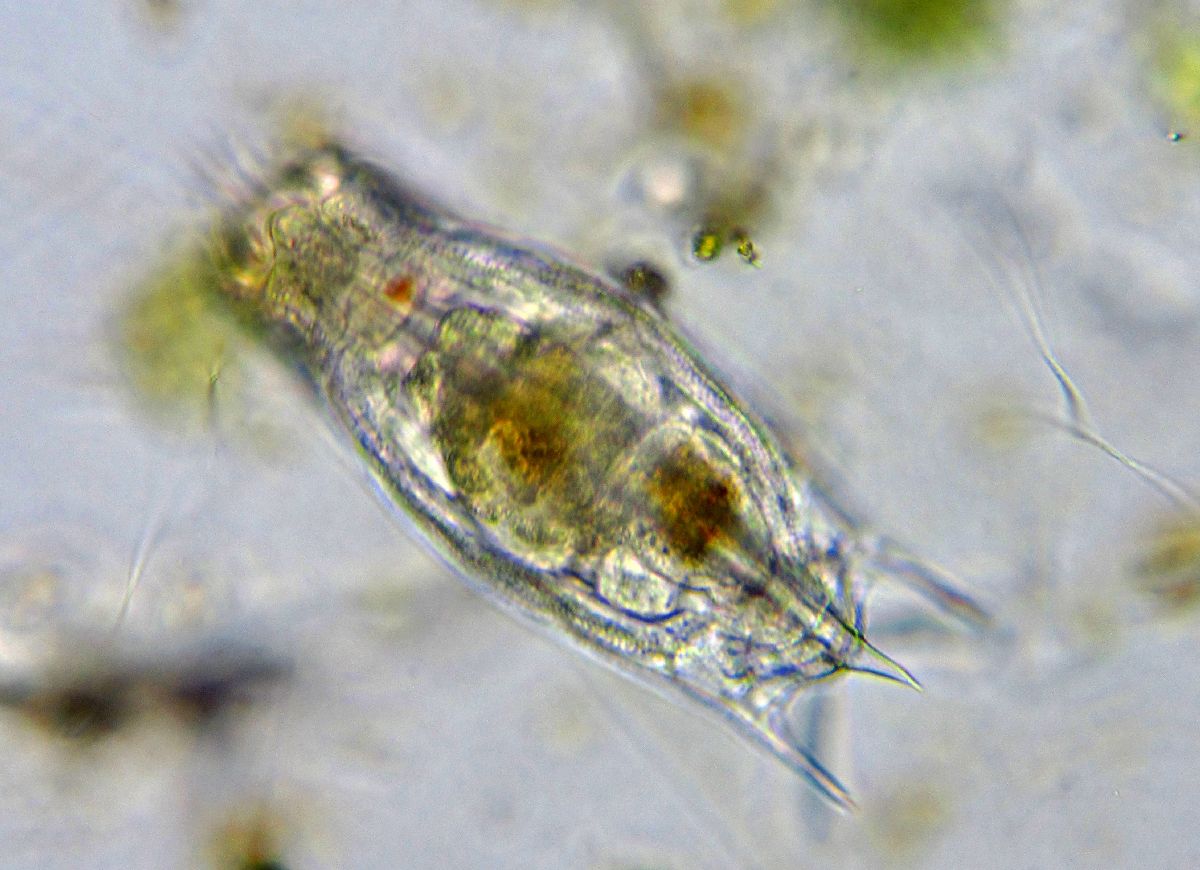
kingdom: Animalia
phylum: Rotifera
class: Eurotatoria
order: Ploima
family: Mytilinidae
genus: Mytilina
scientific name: Mytilina ventralis
